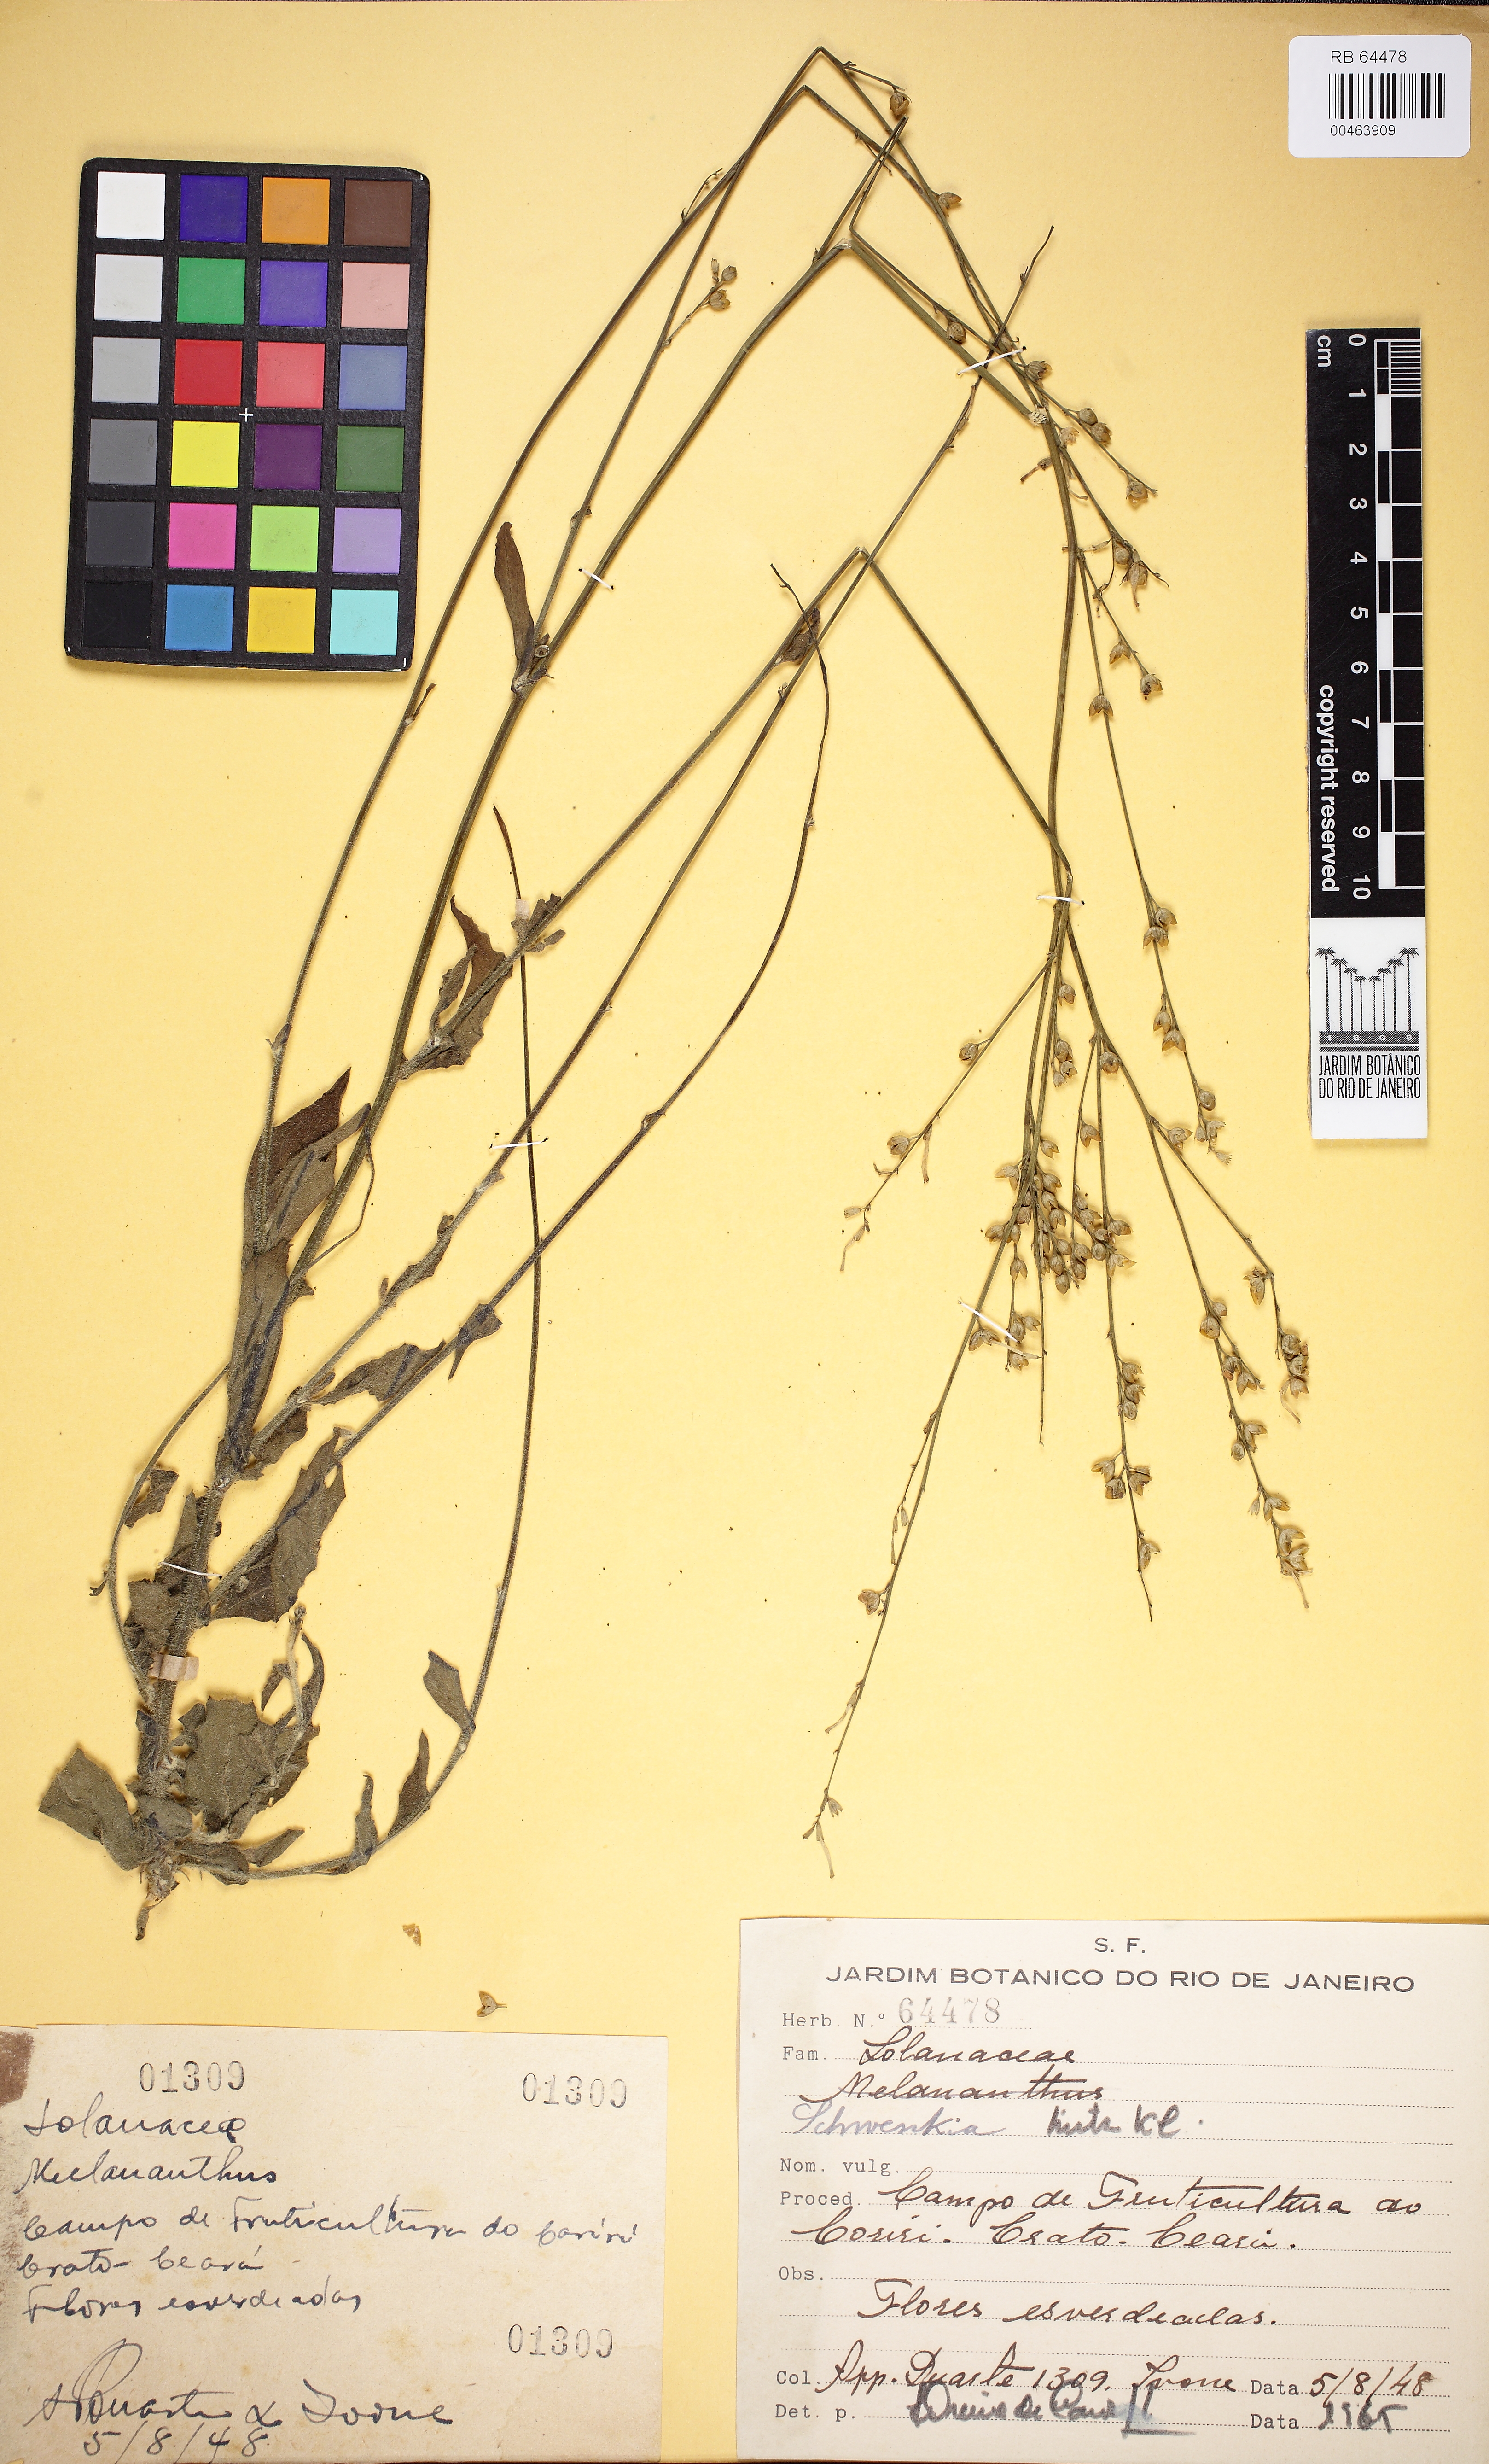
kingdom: Plantae
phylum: Tracheophyta
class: Magnoliopsida
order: Solanales
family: Solanaceae
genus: Schwenckia
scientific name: Schwenckia americana
